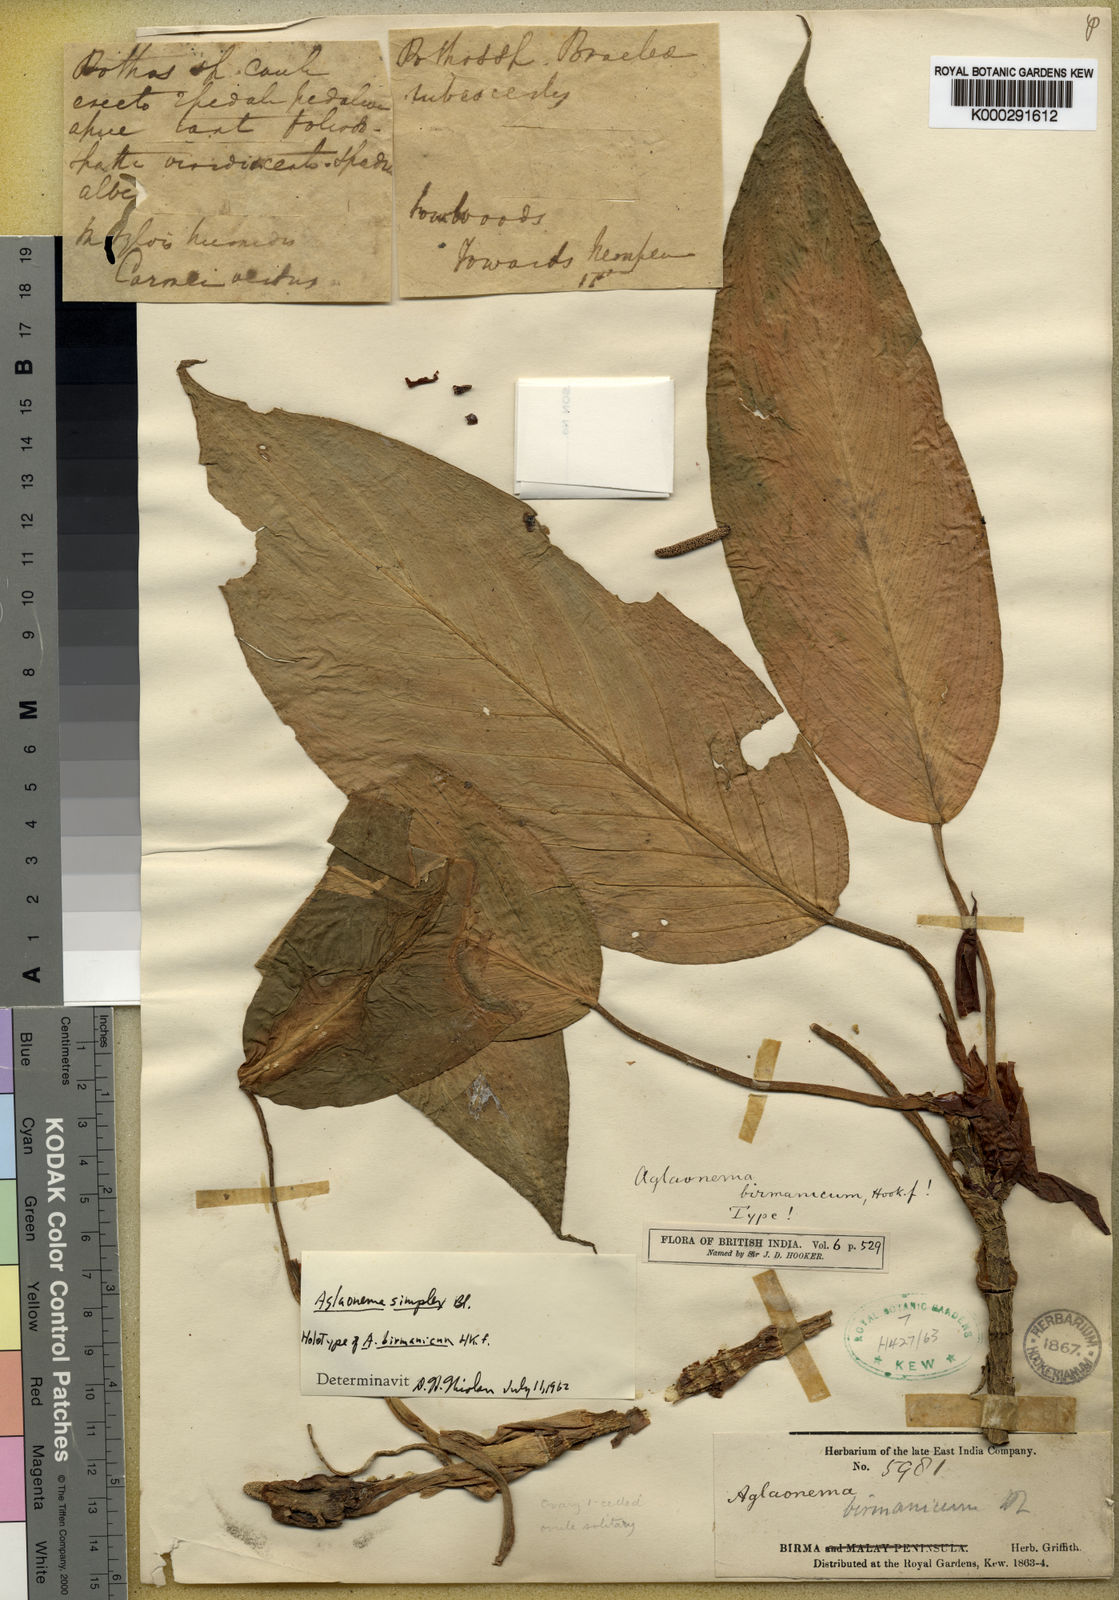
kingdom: Plantae
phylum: Tracheophyta
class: Liliopsida
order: Alismatales
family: Araceae
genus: Aglaonema
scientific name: Aglaonema simplex
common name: Malayan-sword
